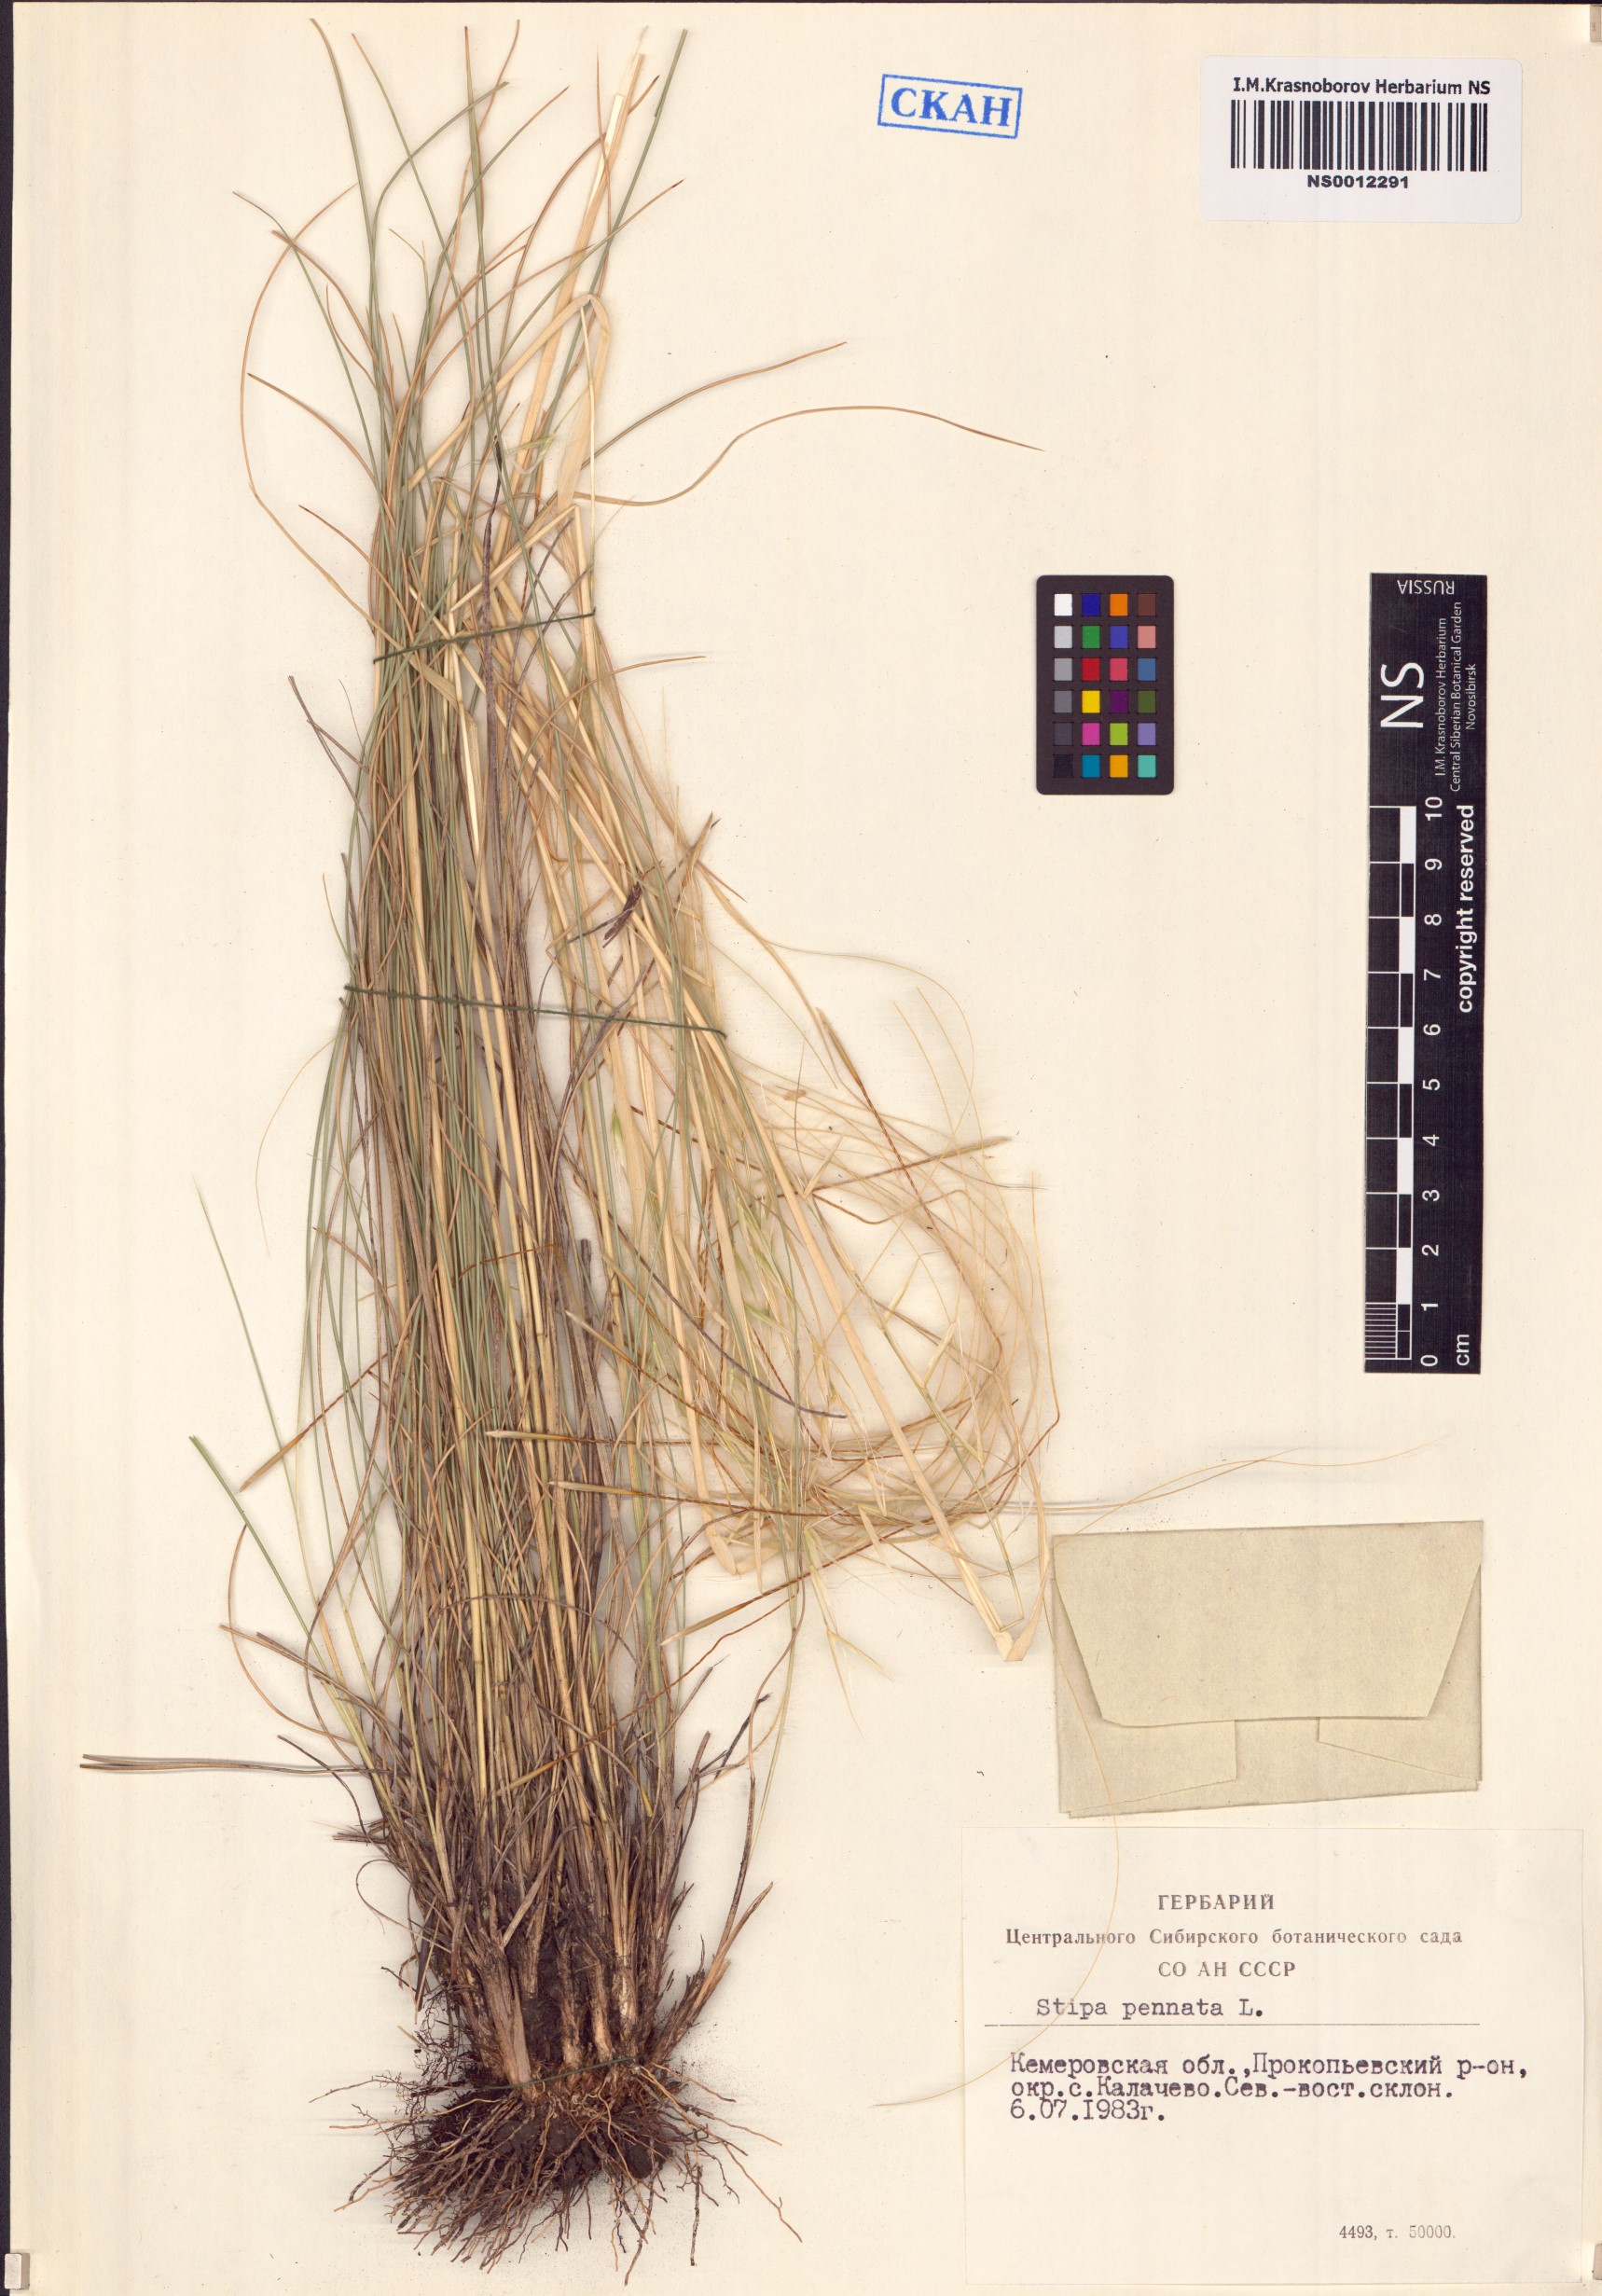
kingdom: Plantae
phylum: Tracheophyta
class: Liliopsida
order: Poales
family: Poaceae
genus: Stipa
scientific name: Stipa pennata
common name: European feather grass
